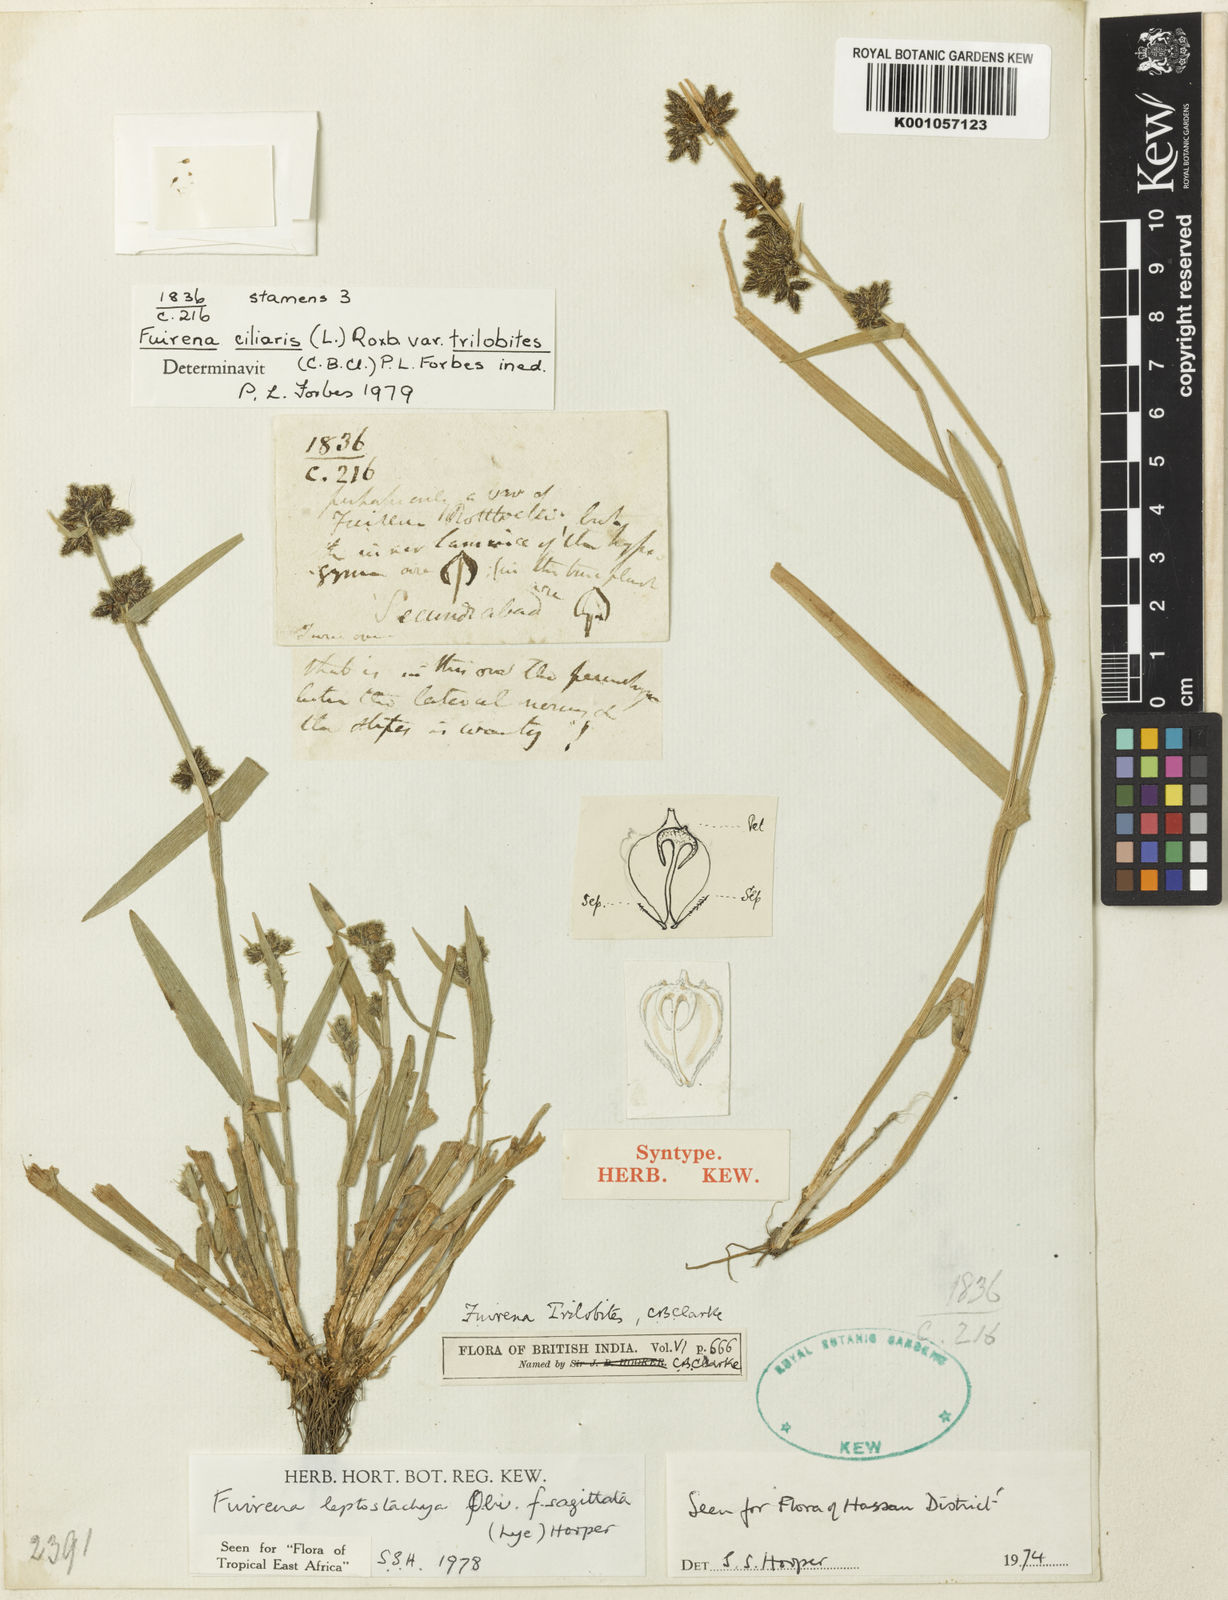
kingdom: Plantae
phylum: Tracheophyta
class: Liliopsida
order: Poales
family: Cyperaceae
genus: Fuirena
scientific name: Fuirena trilobites
